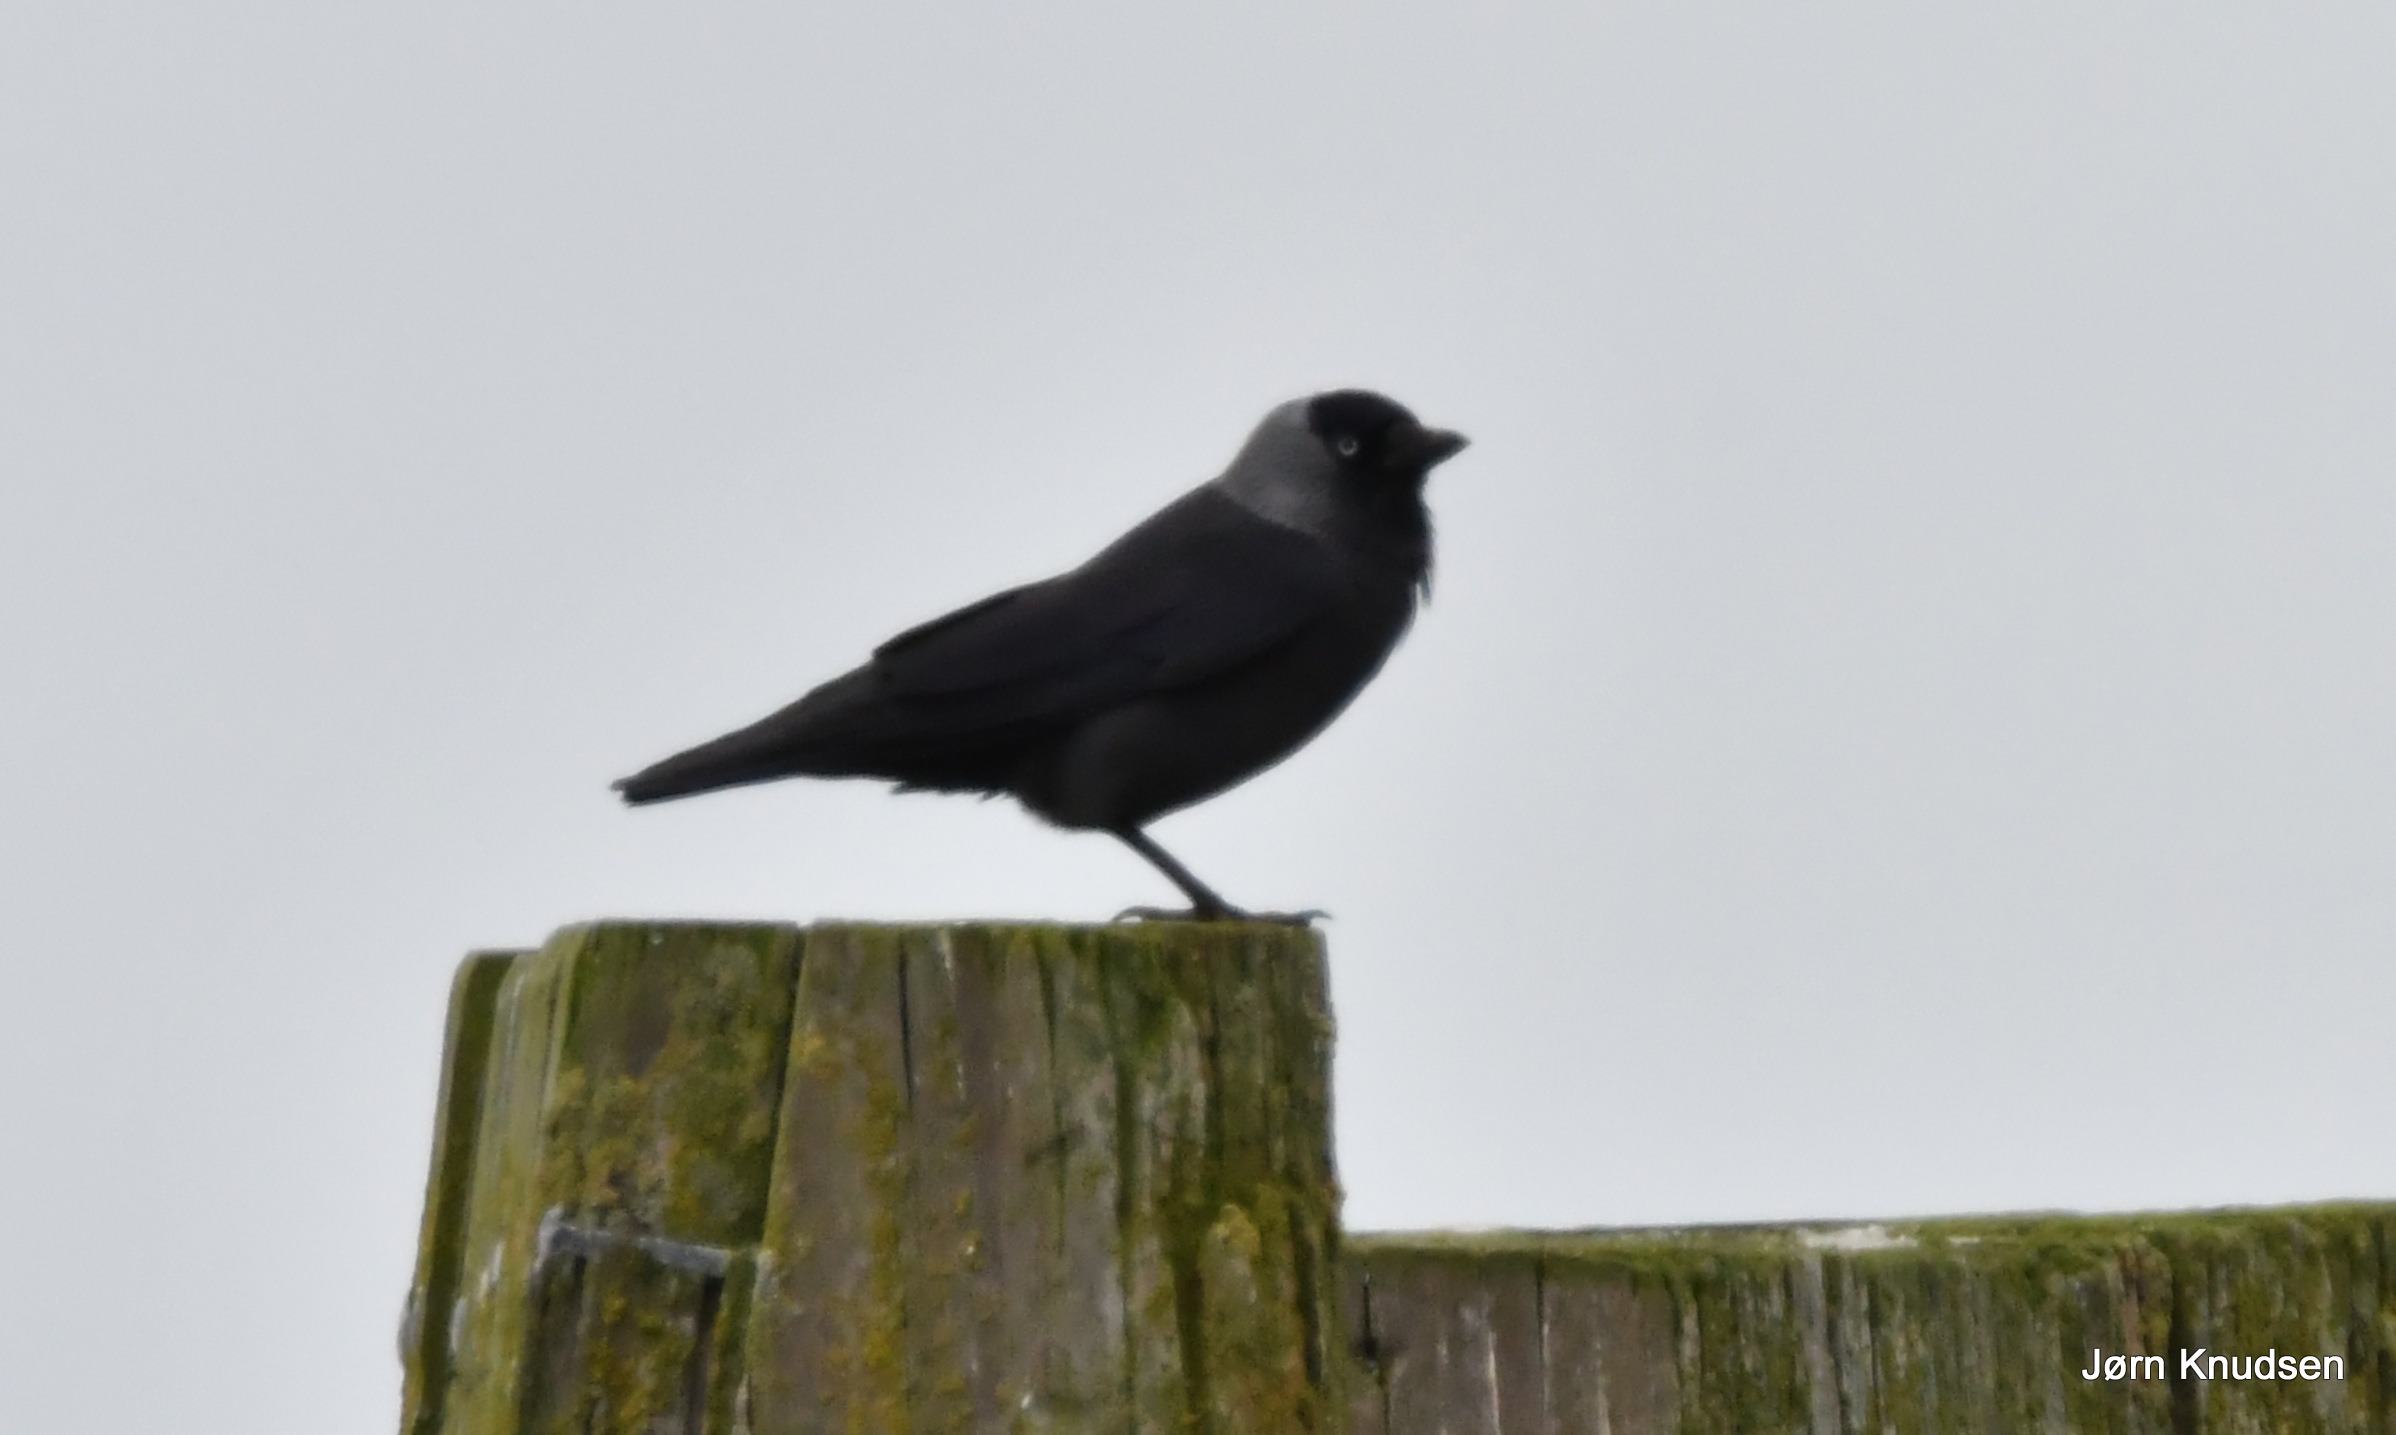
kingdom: Animalia
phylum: Chordata
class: Aves
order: Passeriformes
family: Corvidae
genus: Coloeus
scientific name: Coloeus monedula
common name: Allike
